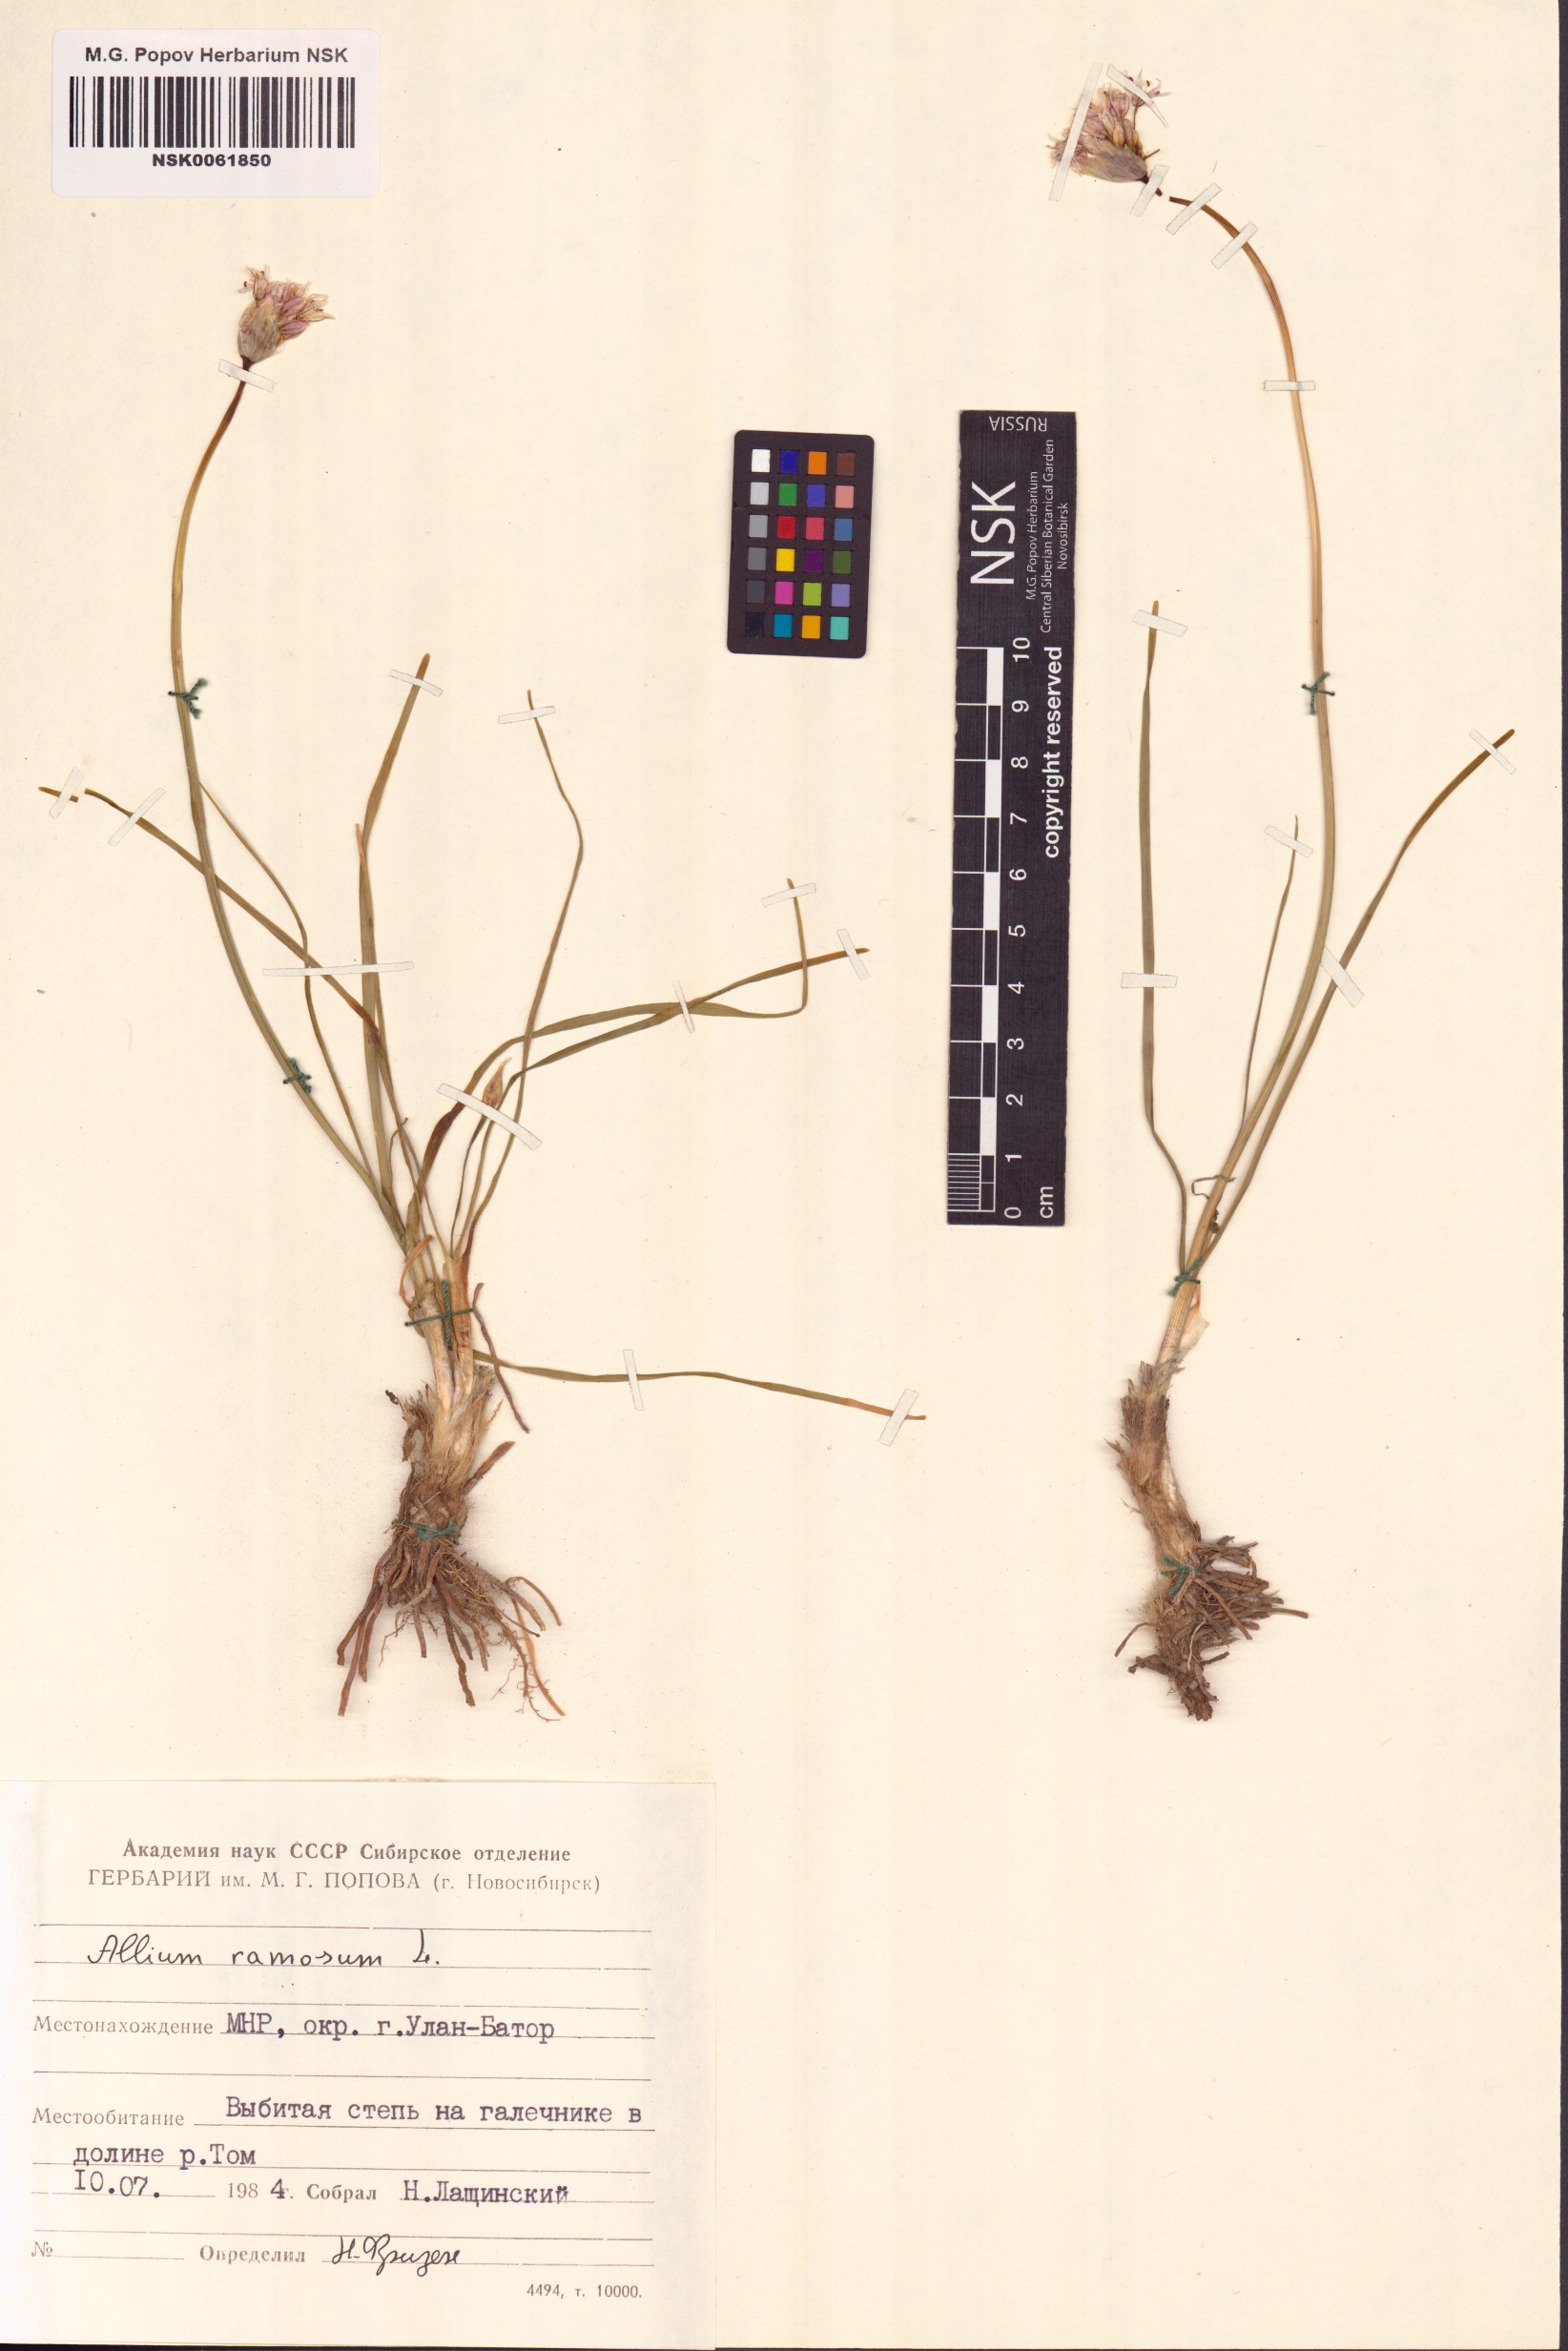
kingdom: Plantae
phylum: Tracheophyta
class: Liliopsida
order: Asparagales
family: Amaryllidaceae
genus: Allium
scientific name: Allium ramosum
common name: Fragrant garlic
